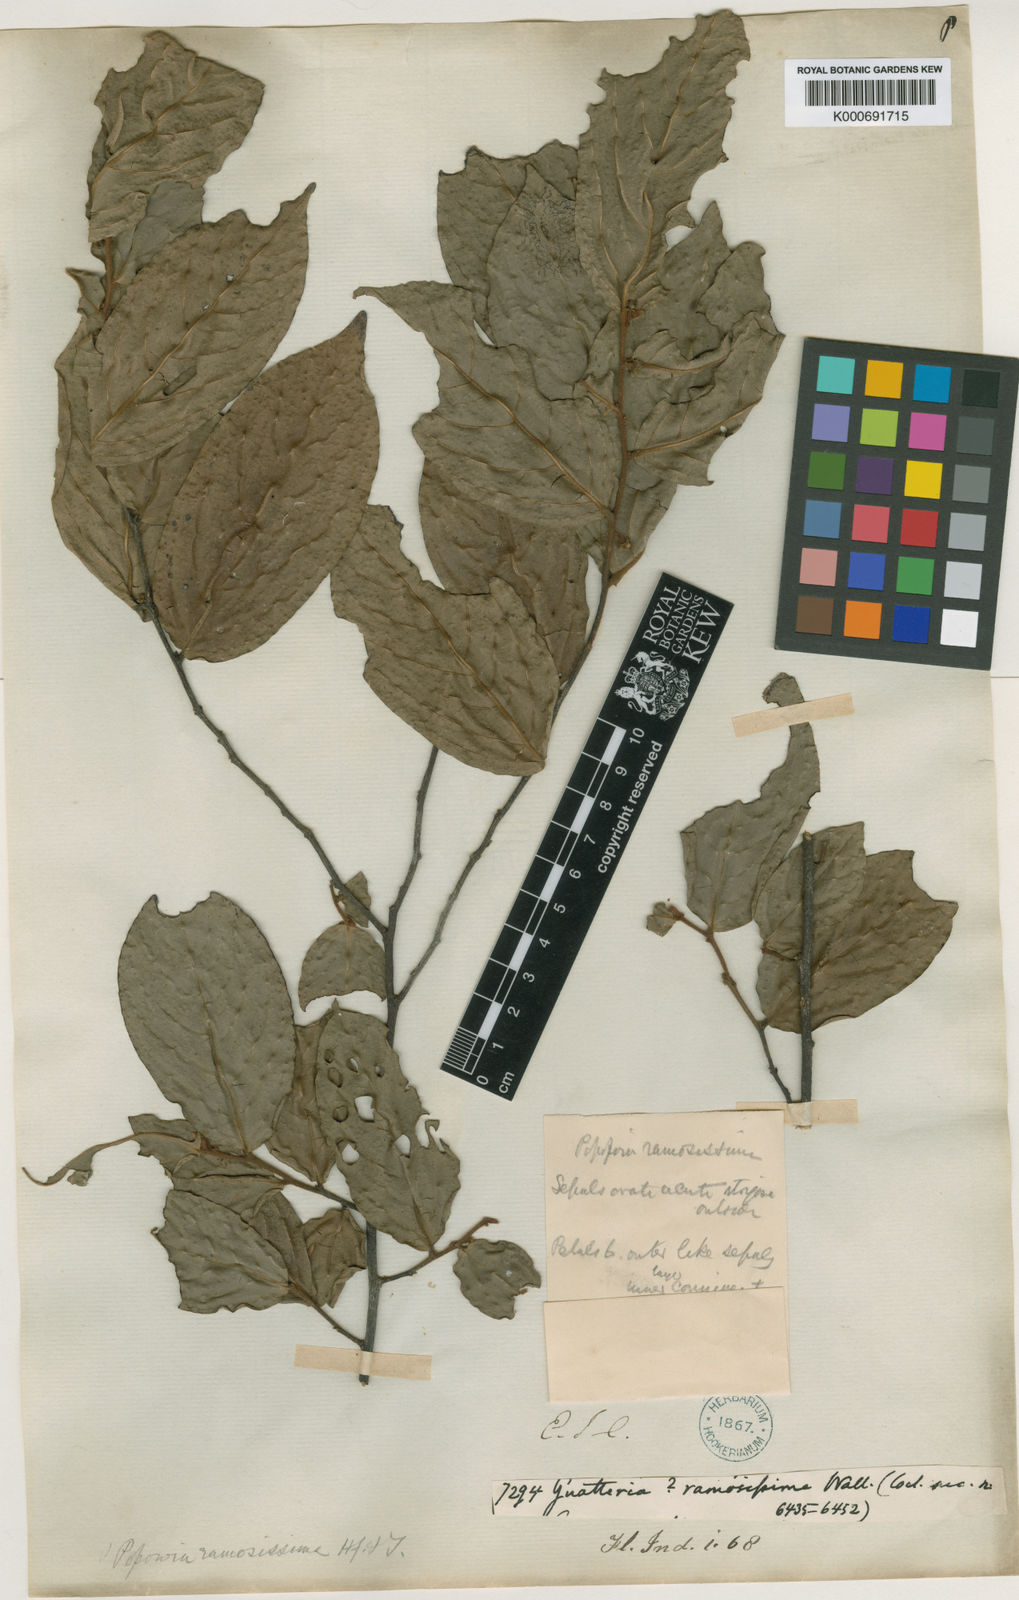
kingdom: Plantae
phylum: Tracheophyta
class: Magnoliopsida
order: Magnoliales
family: Annonaceae
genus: Popowia
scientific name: Popowia
